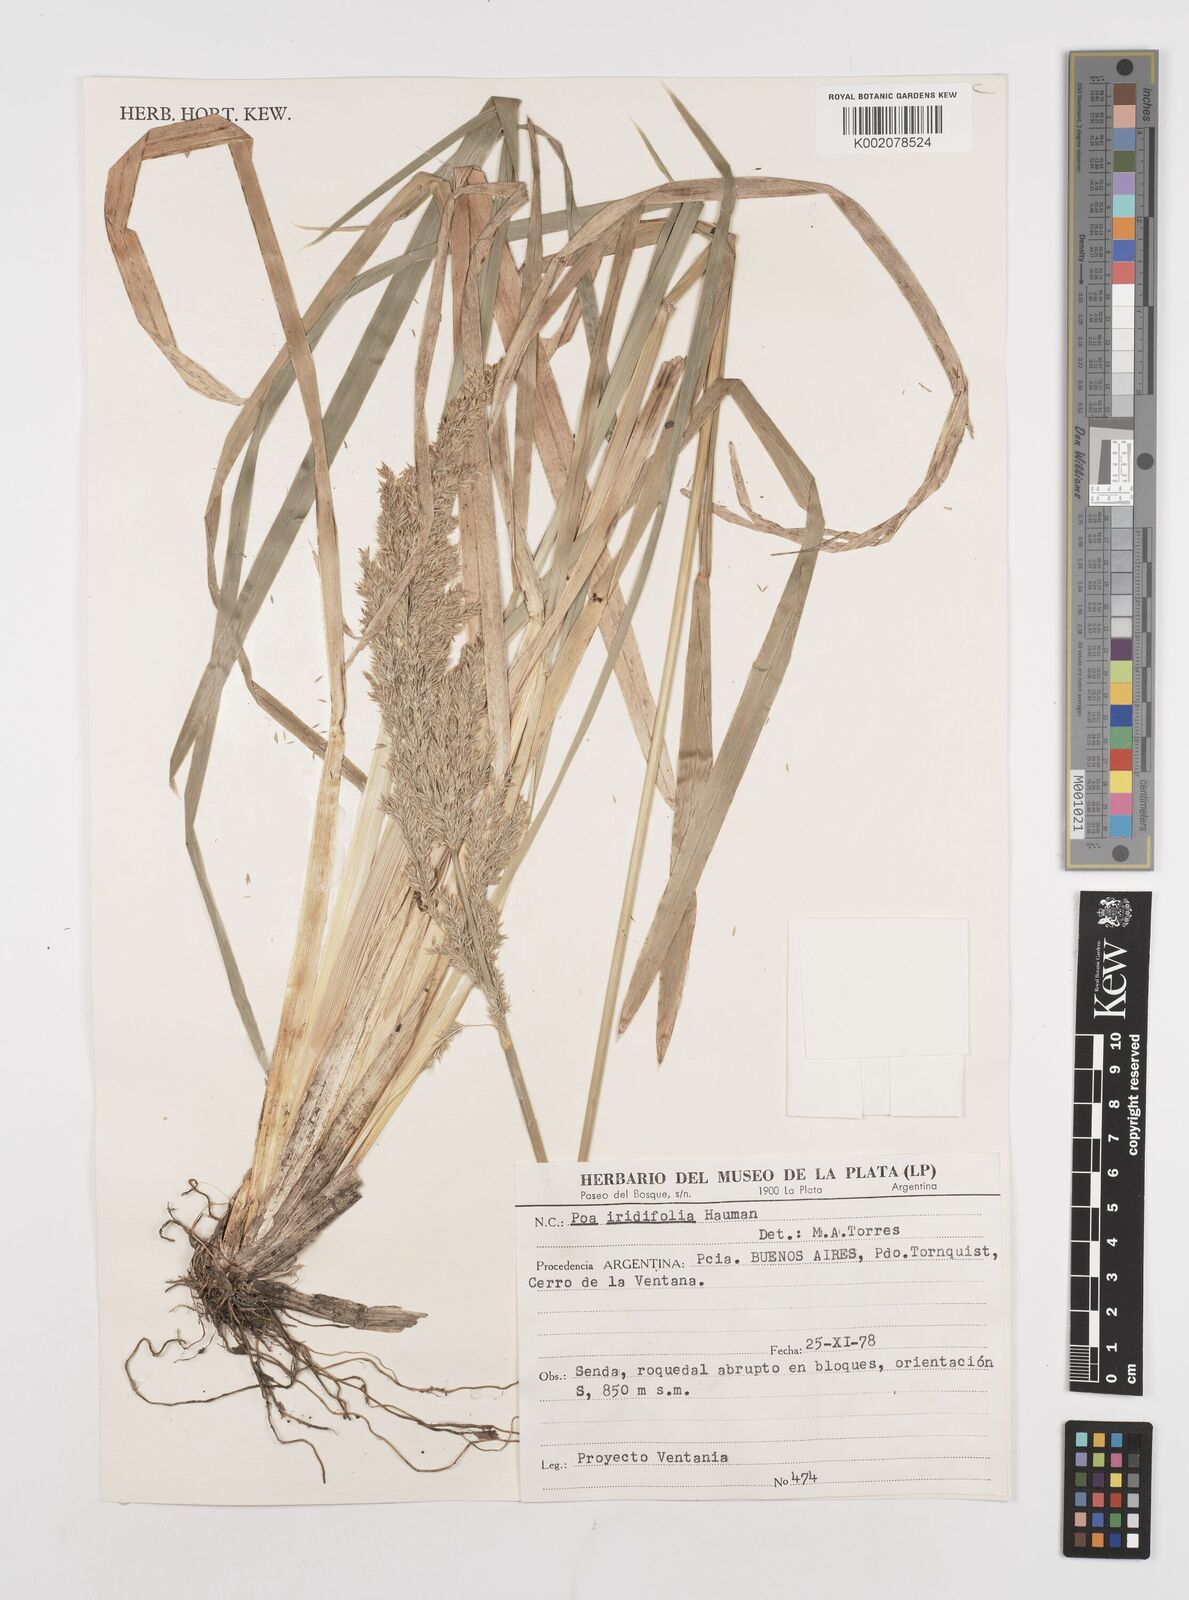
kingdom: Plantae
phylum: Tracheophyta
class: Liliopsida
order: Poales
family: Poaceae
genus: Poa
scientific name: Poa iridifolia
